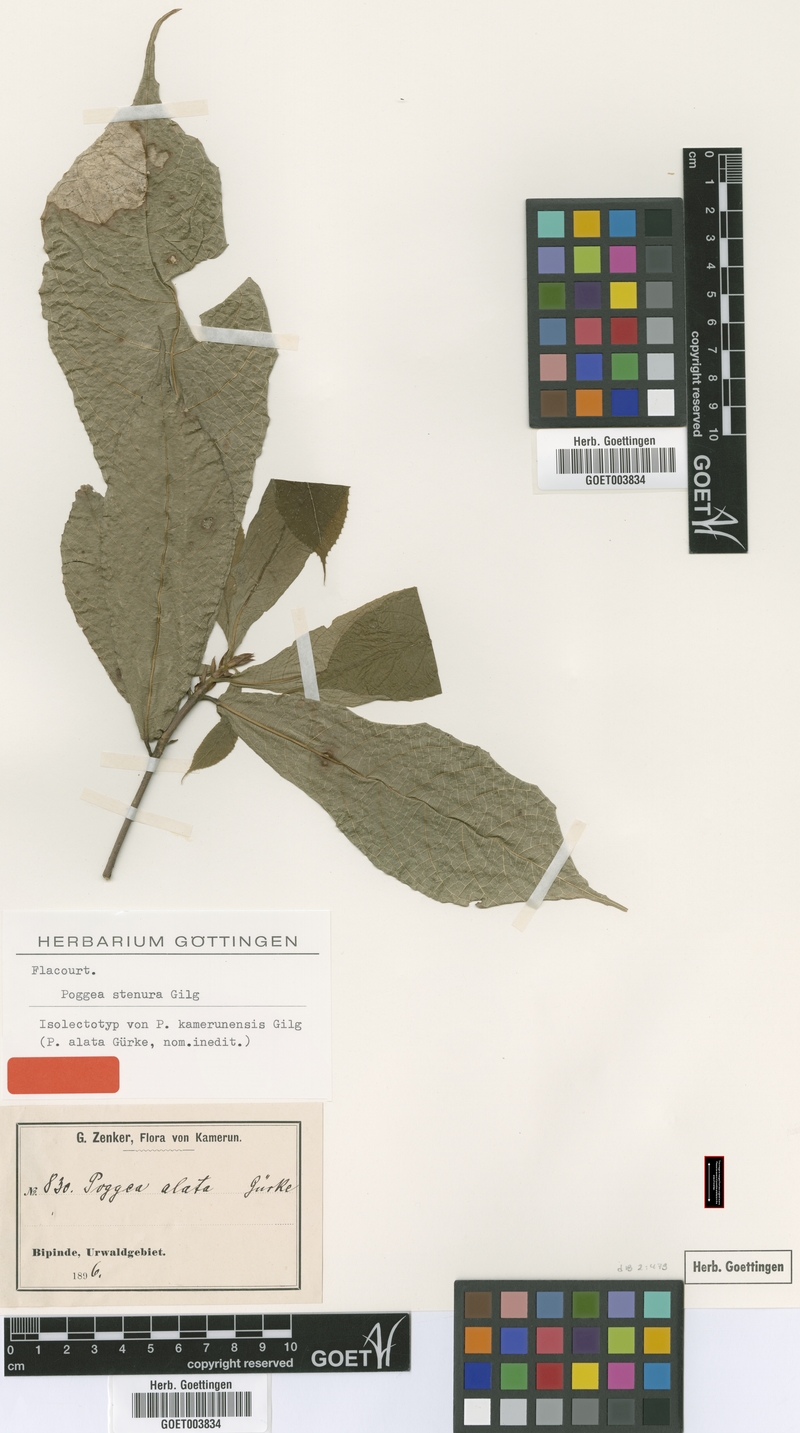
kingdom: Plantae
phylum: Tracheophyta
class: Magnoliopsida
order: Malpighiales
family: Achariaceae
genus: Poggea
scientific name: Poggea alata
